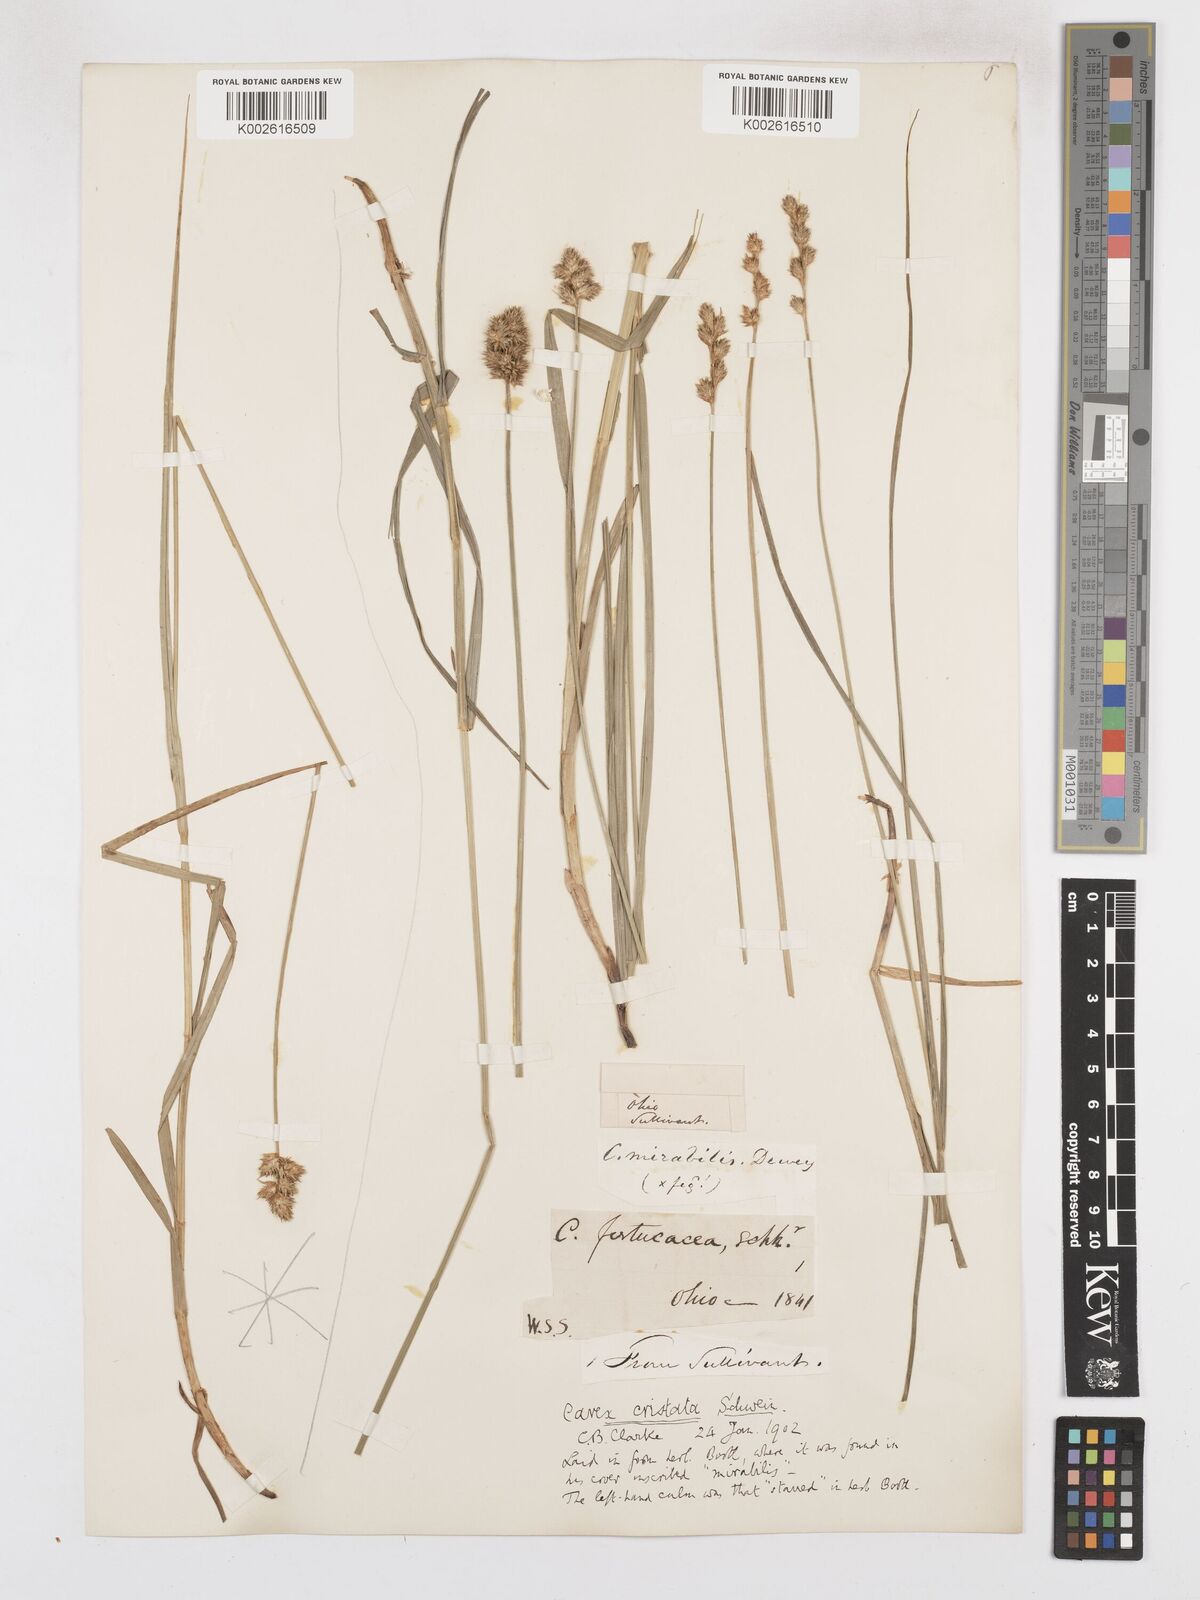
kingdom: Plantae
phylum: Tracheophyta
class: Liliopsida
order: Poales
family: Cyperaceae
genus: Carex
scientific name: Carex cristatella
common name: Crested oval sedge
